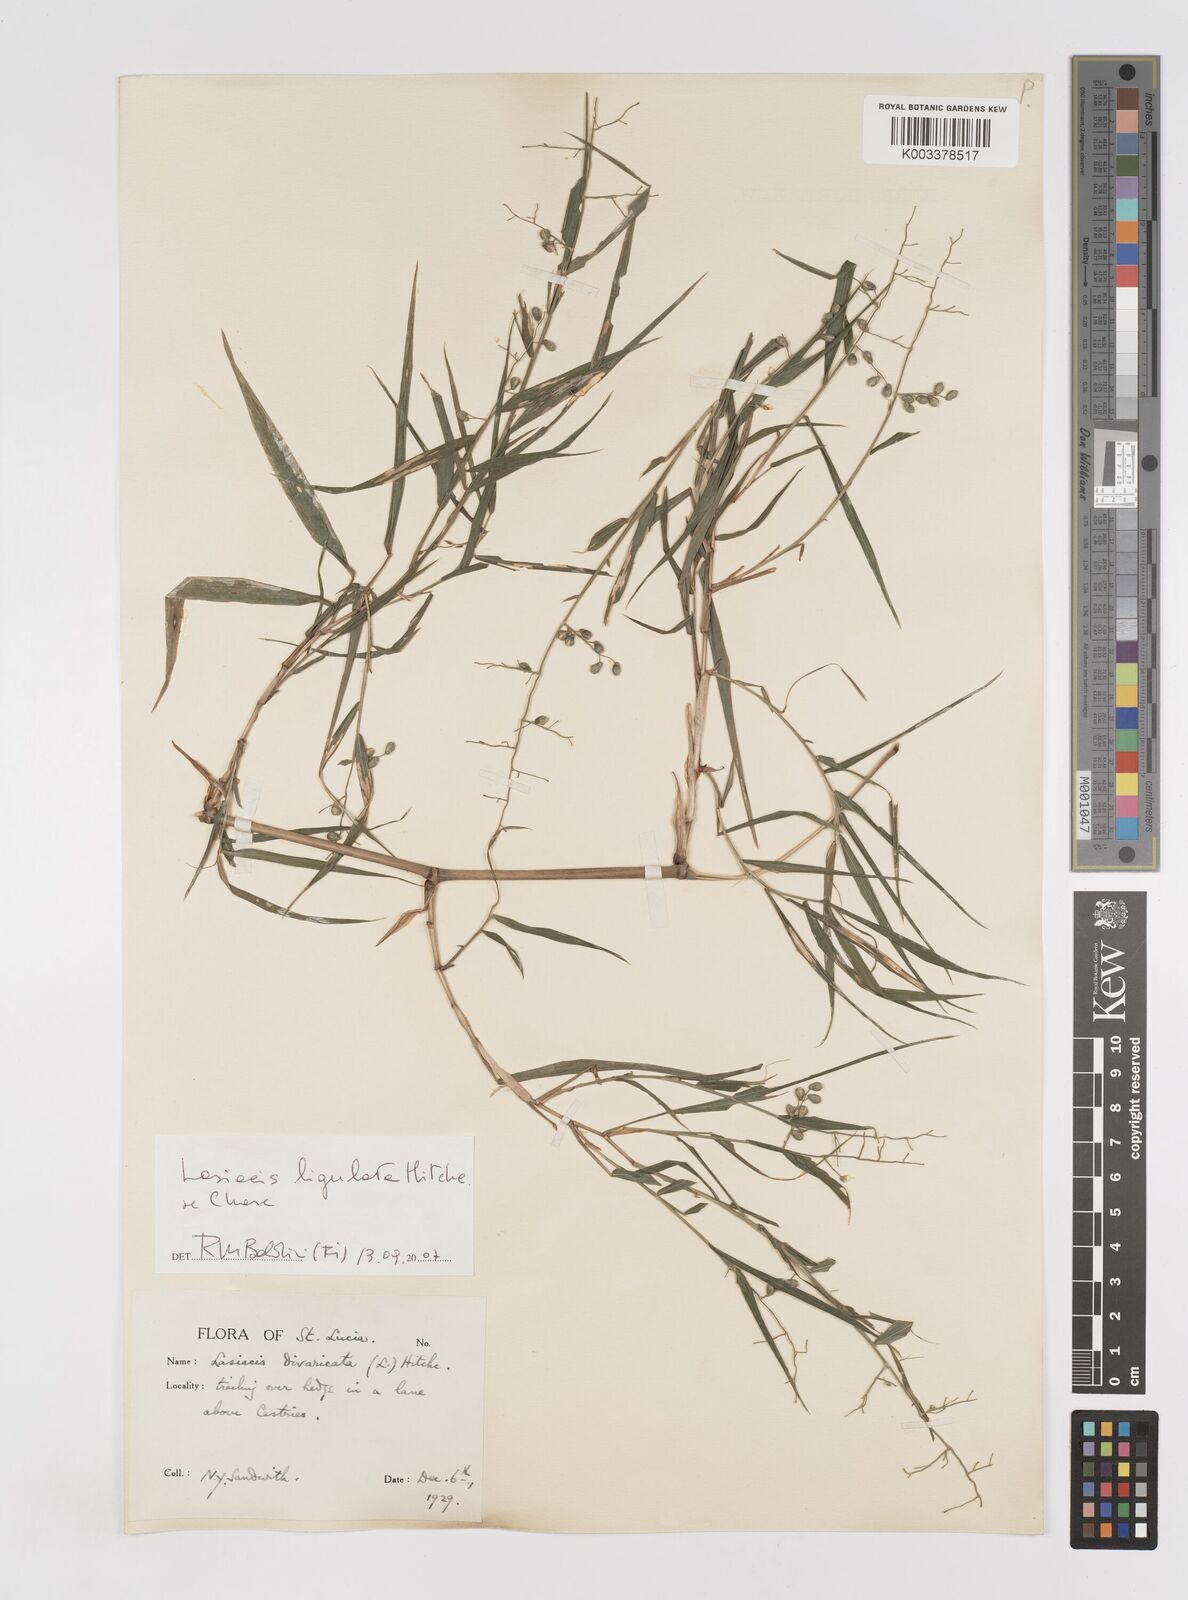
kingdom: Plantae
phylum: Tracheophyta
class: Liliopsida
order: Poales
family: Poaceae
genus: Lasiacis
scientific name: Lasiacis ligulata
